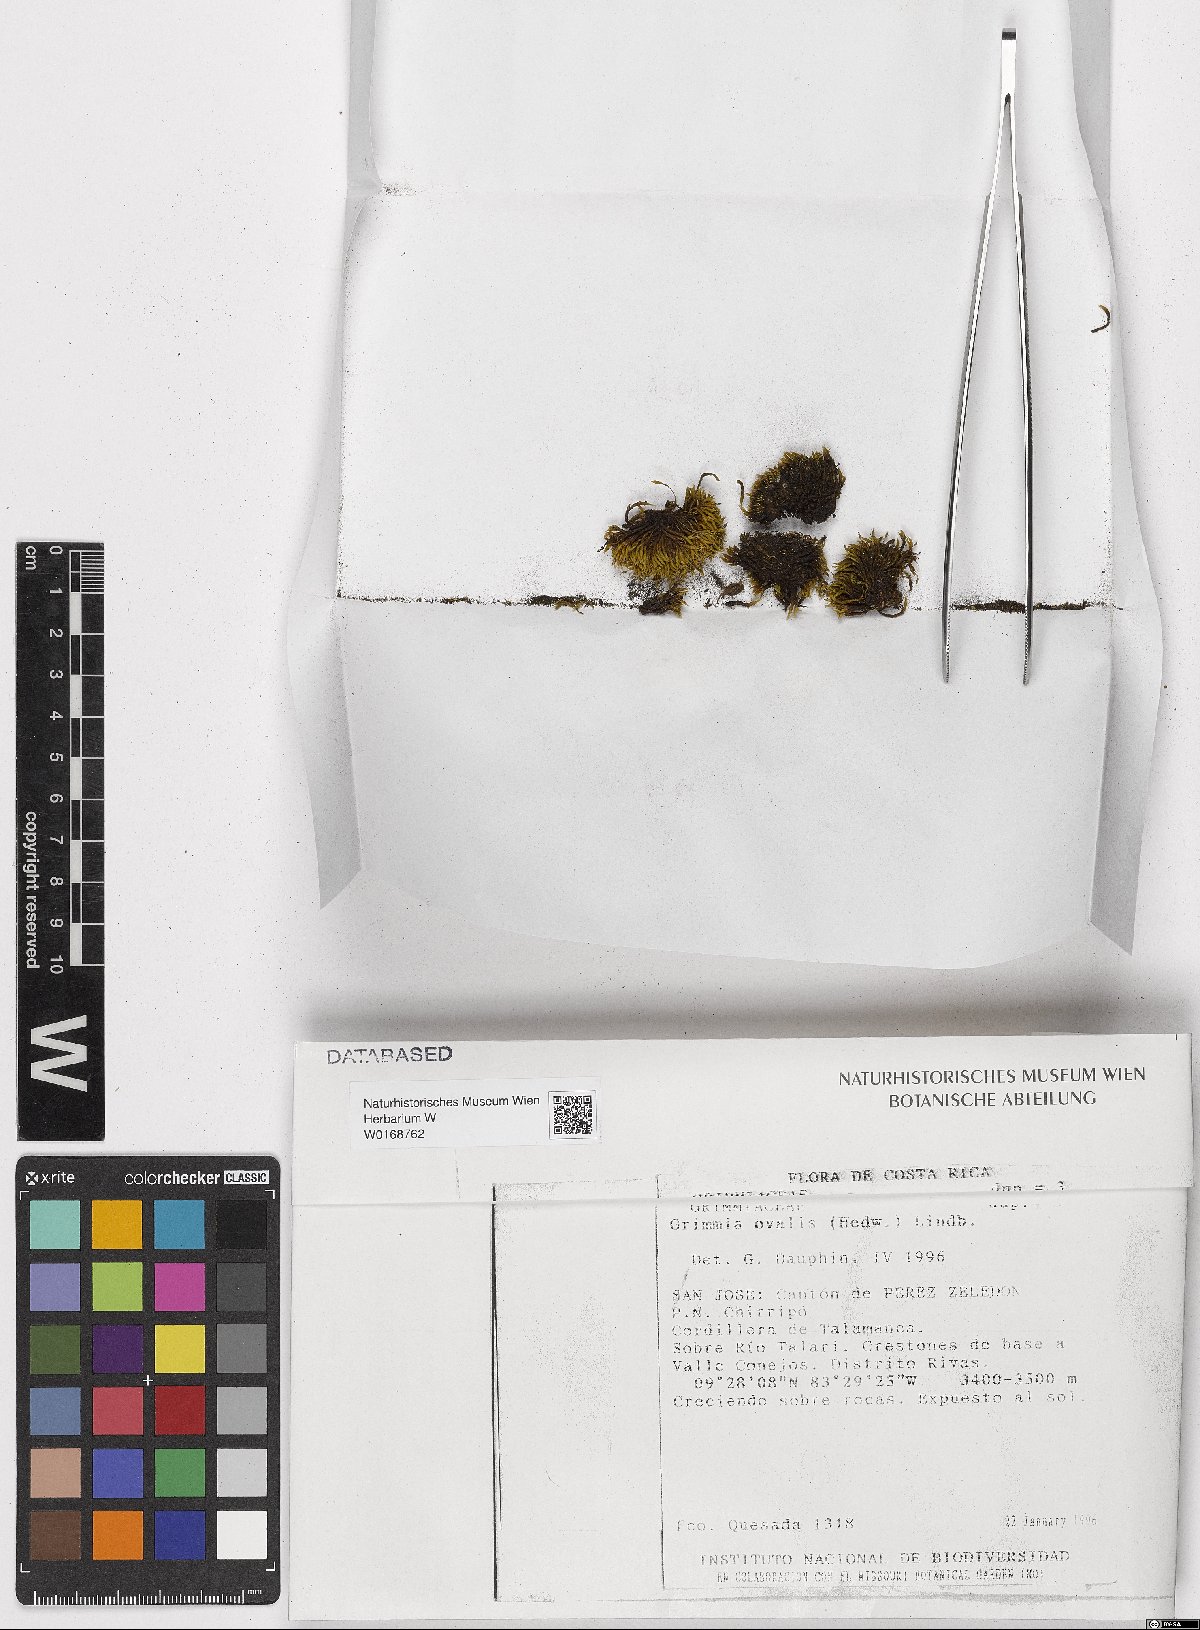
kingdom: Plantae
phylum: Bryophyta
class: Bryopsida
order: Grimmiales
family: Grimmiaceae
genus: Grimmia
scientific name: Grimmia ovalis
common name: Oval grimmia
